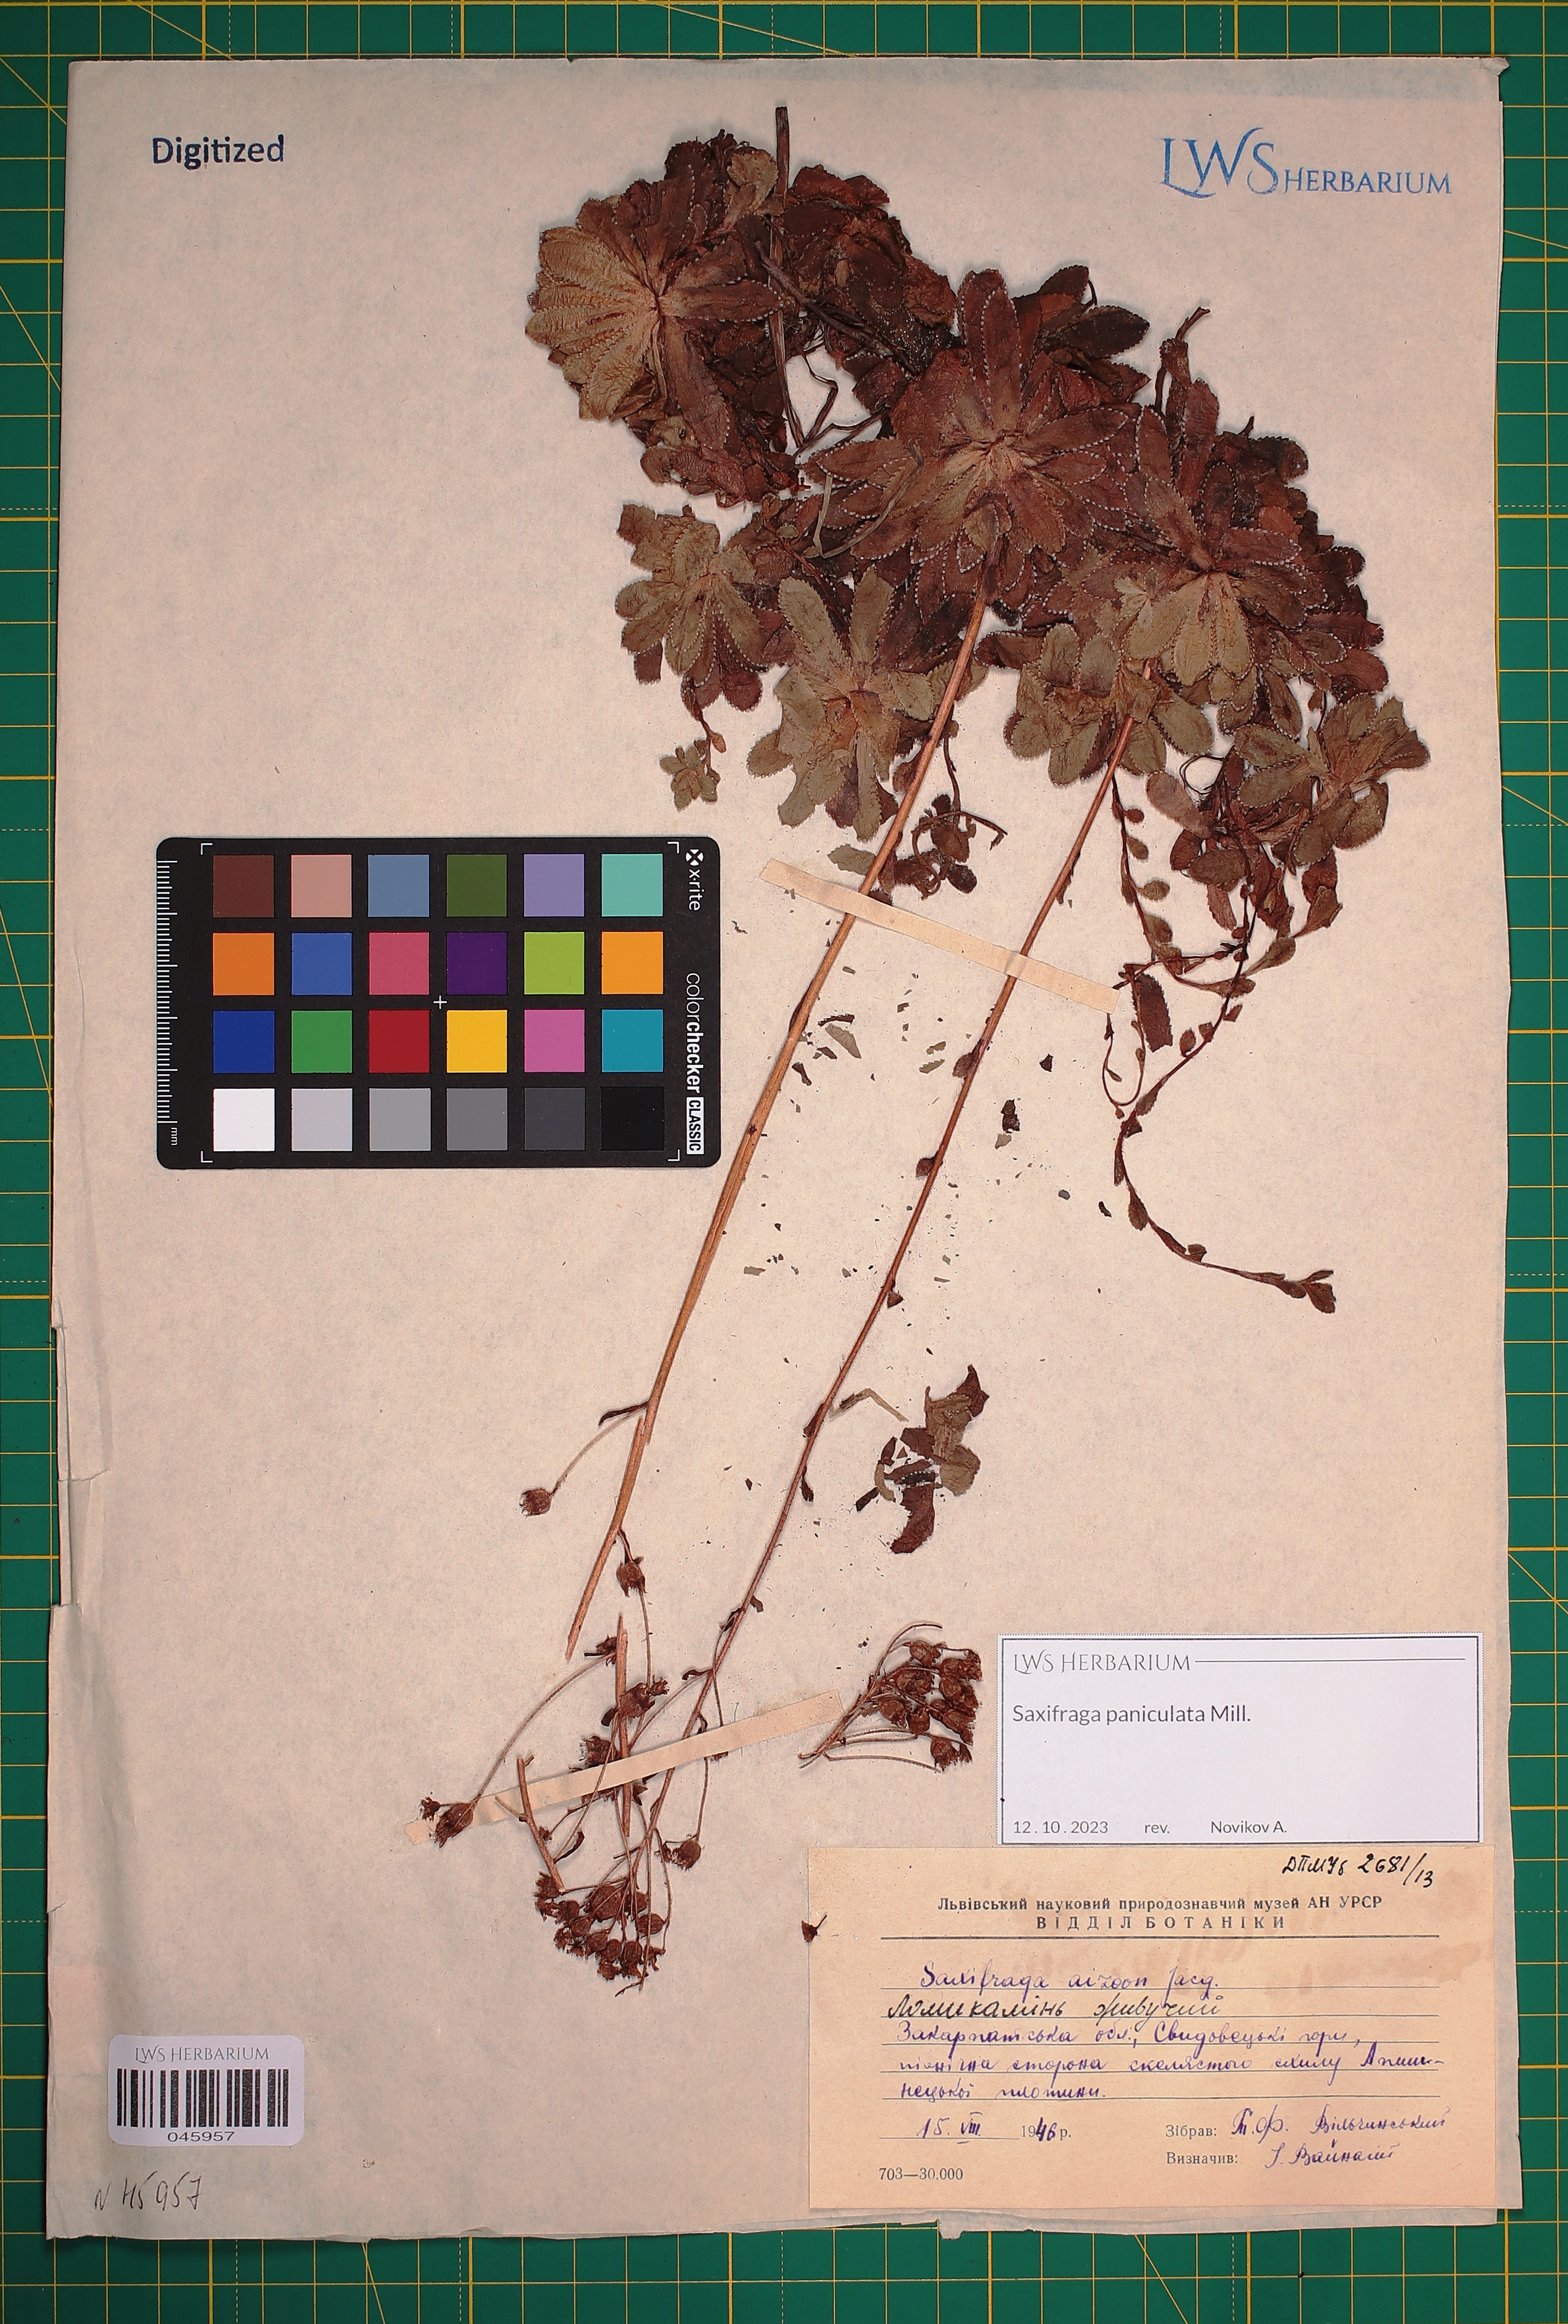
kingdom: Plantae
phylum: Tracheophyta
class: Magnoliopsida
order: Saxifragales
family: Saxifragaceae
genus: Saxifraga
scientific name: Saxifraga paniculata
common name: Livelong saxifrage
